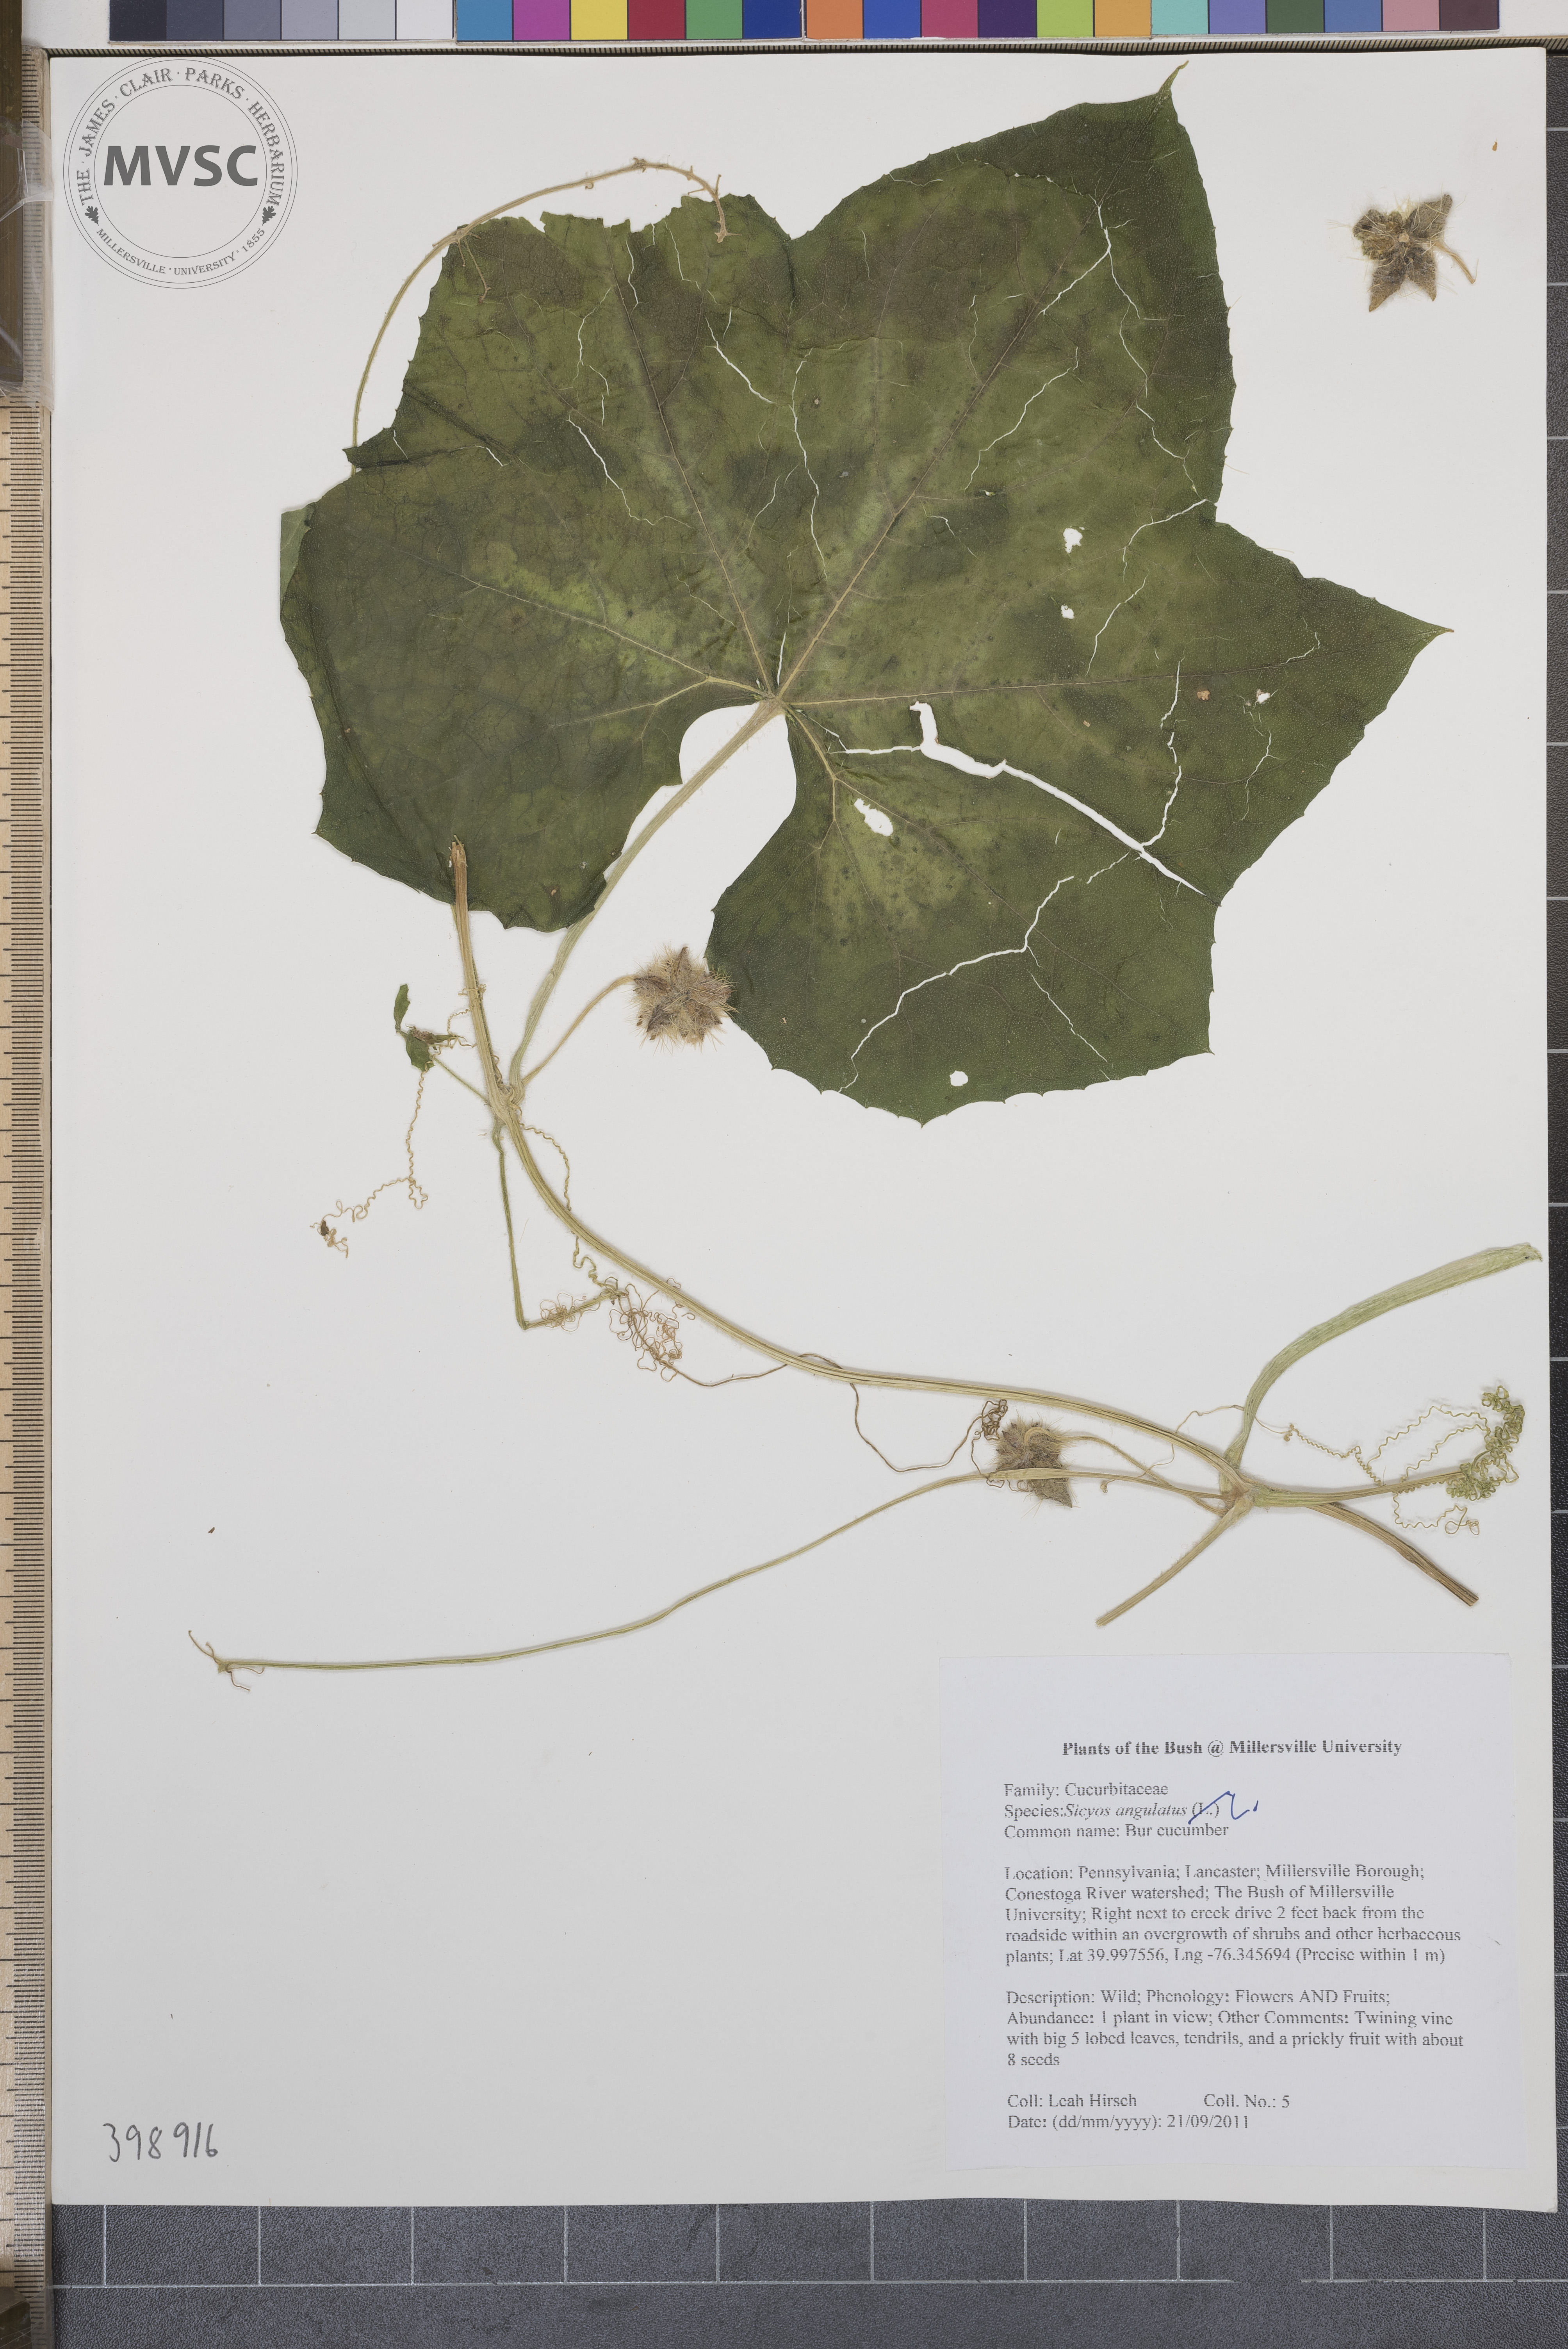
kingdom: Plantae
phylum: Tracheophyta
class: Magnoliopsida
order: Cucurbitales
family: Cucurbitaceae
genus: Sicyos
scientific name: Sicyos angulatus
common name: Bur cucumber
